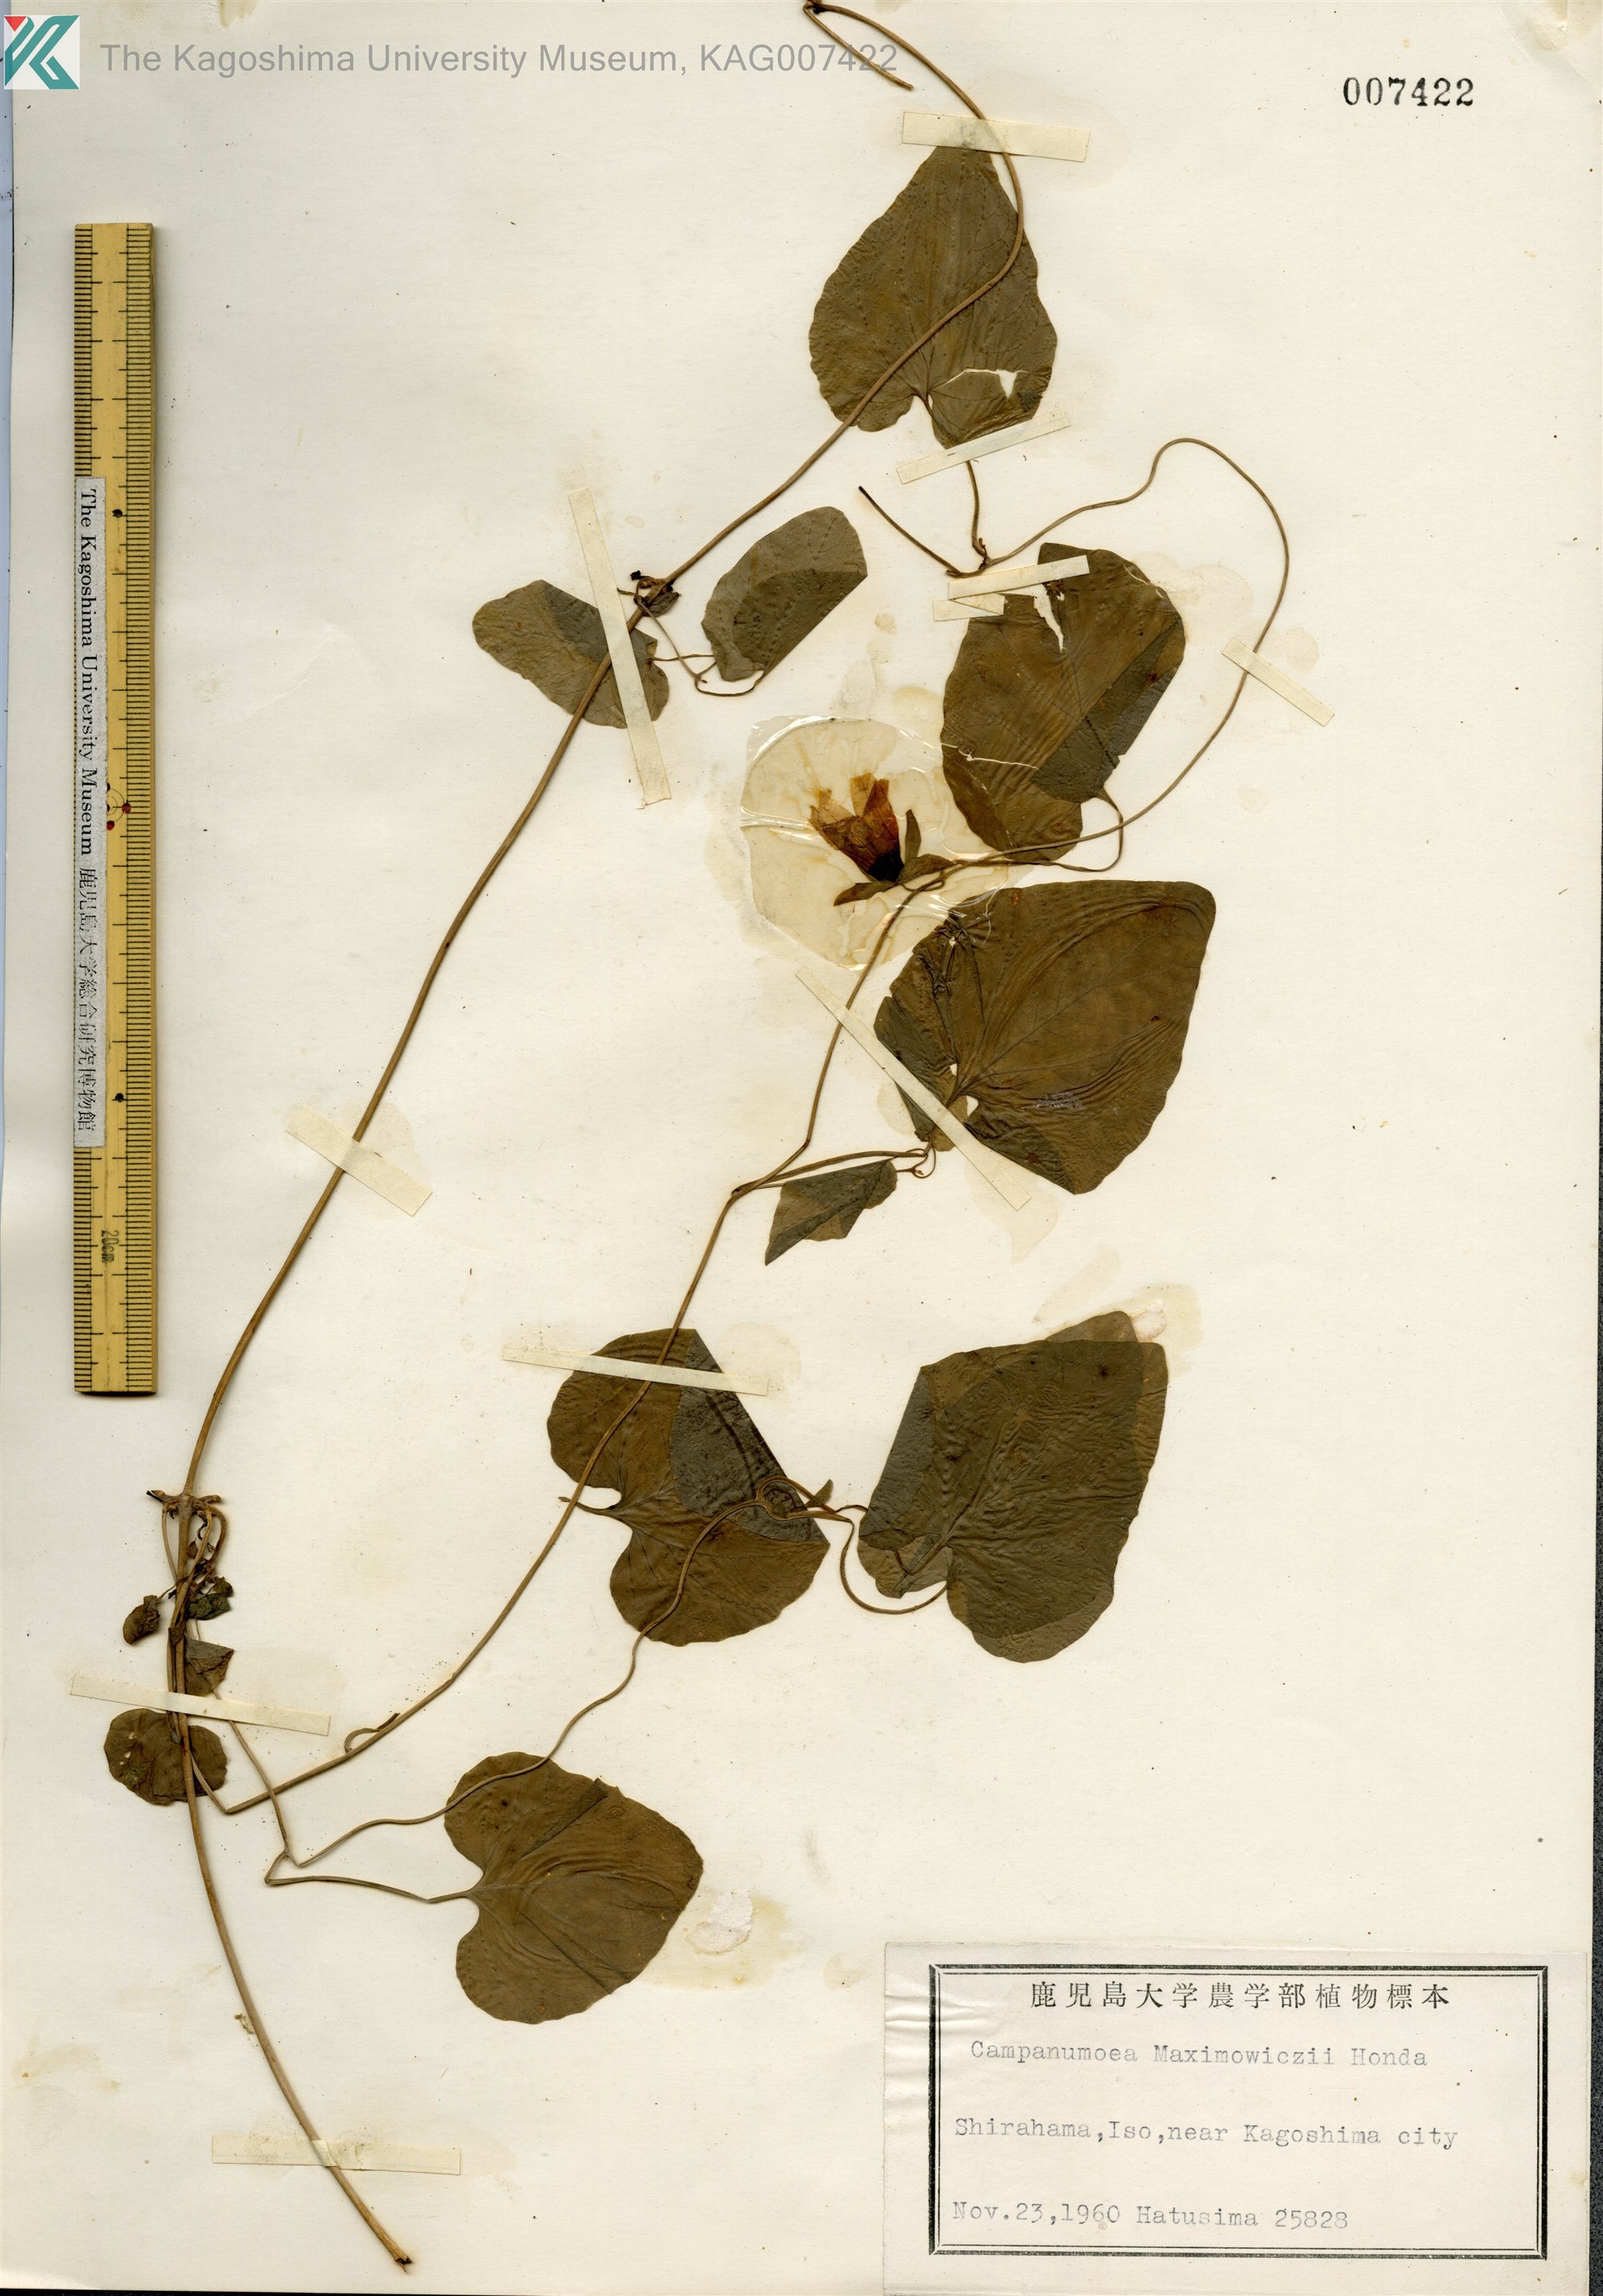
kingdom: Plantae
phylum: Tracheophyta
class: Magnoliopsida
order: Asterales
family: Campanulaceae
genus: Codonopsis
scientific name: Codonopsis javanica
